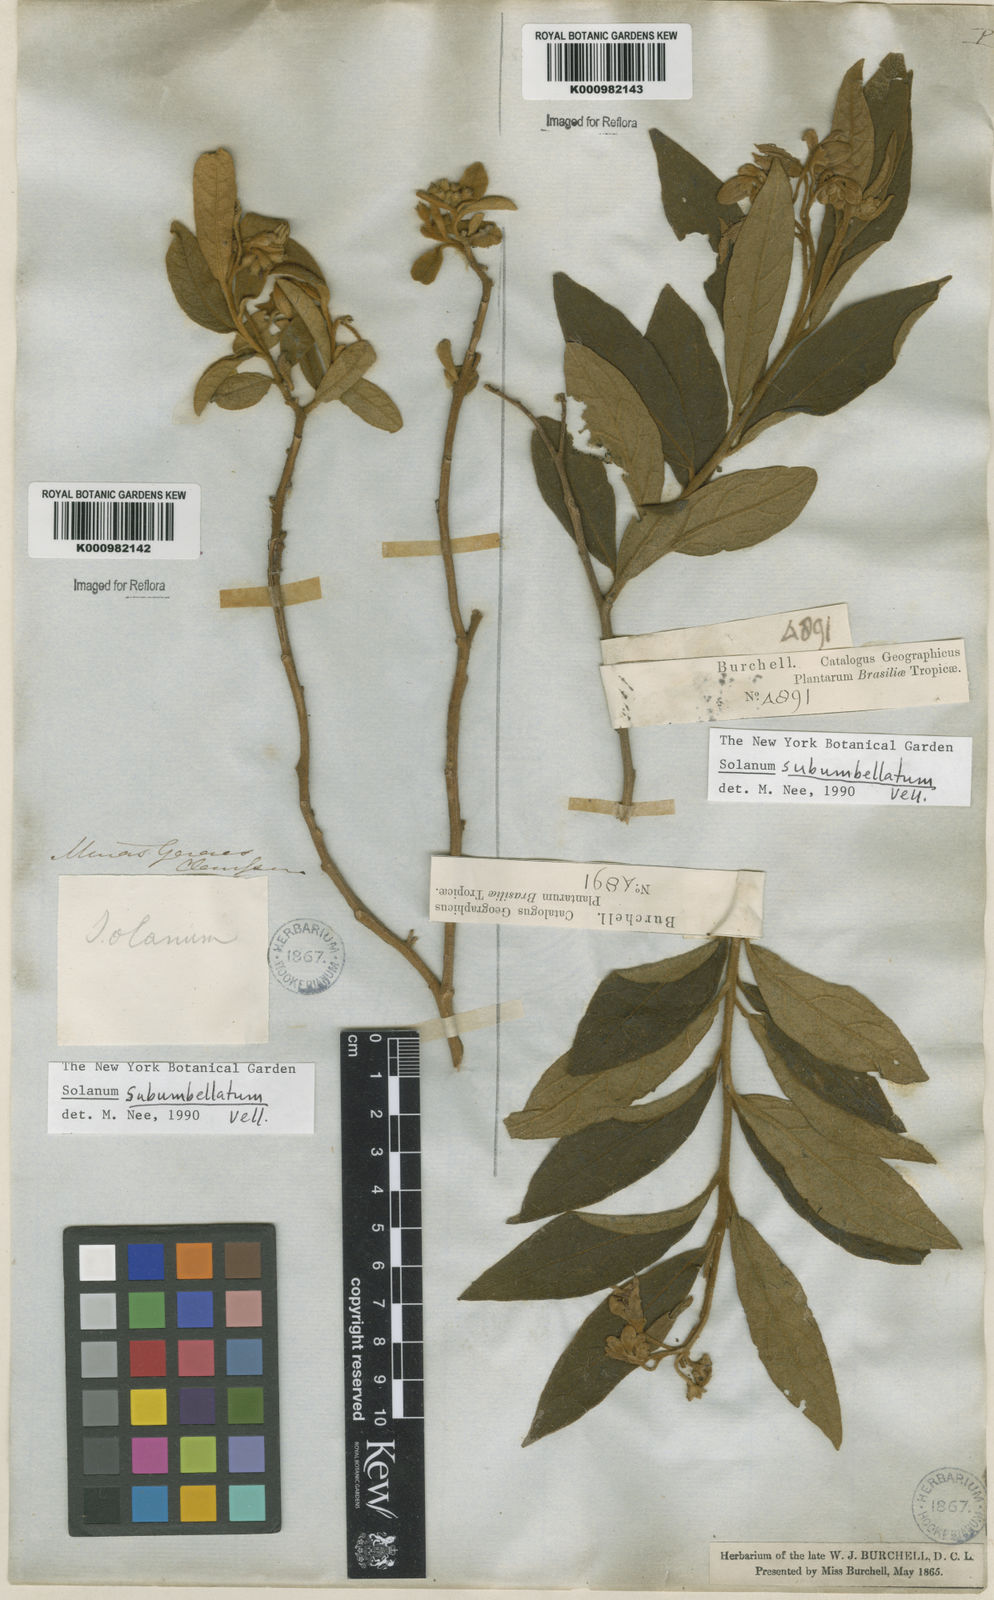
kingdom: Plantae
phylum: Tracheophyta
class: Magnoliopsida
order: Solanales
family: Solanaceae
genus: Solanum
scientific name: Solanum subumbellatum
